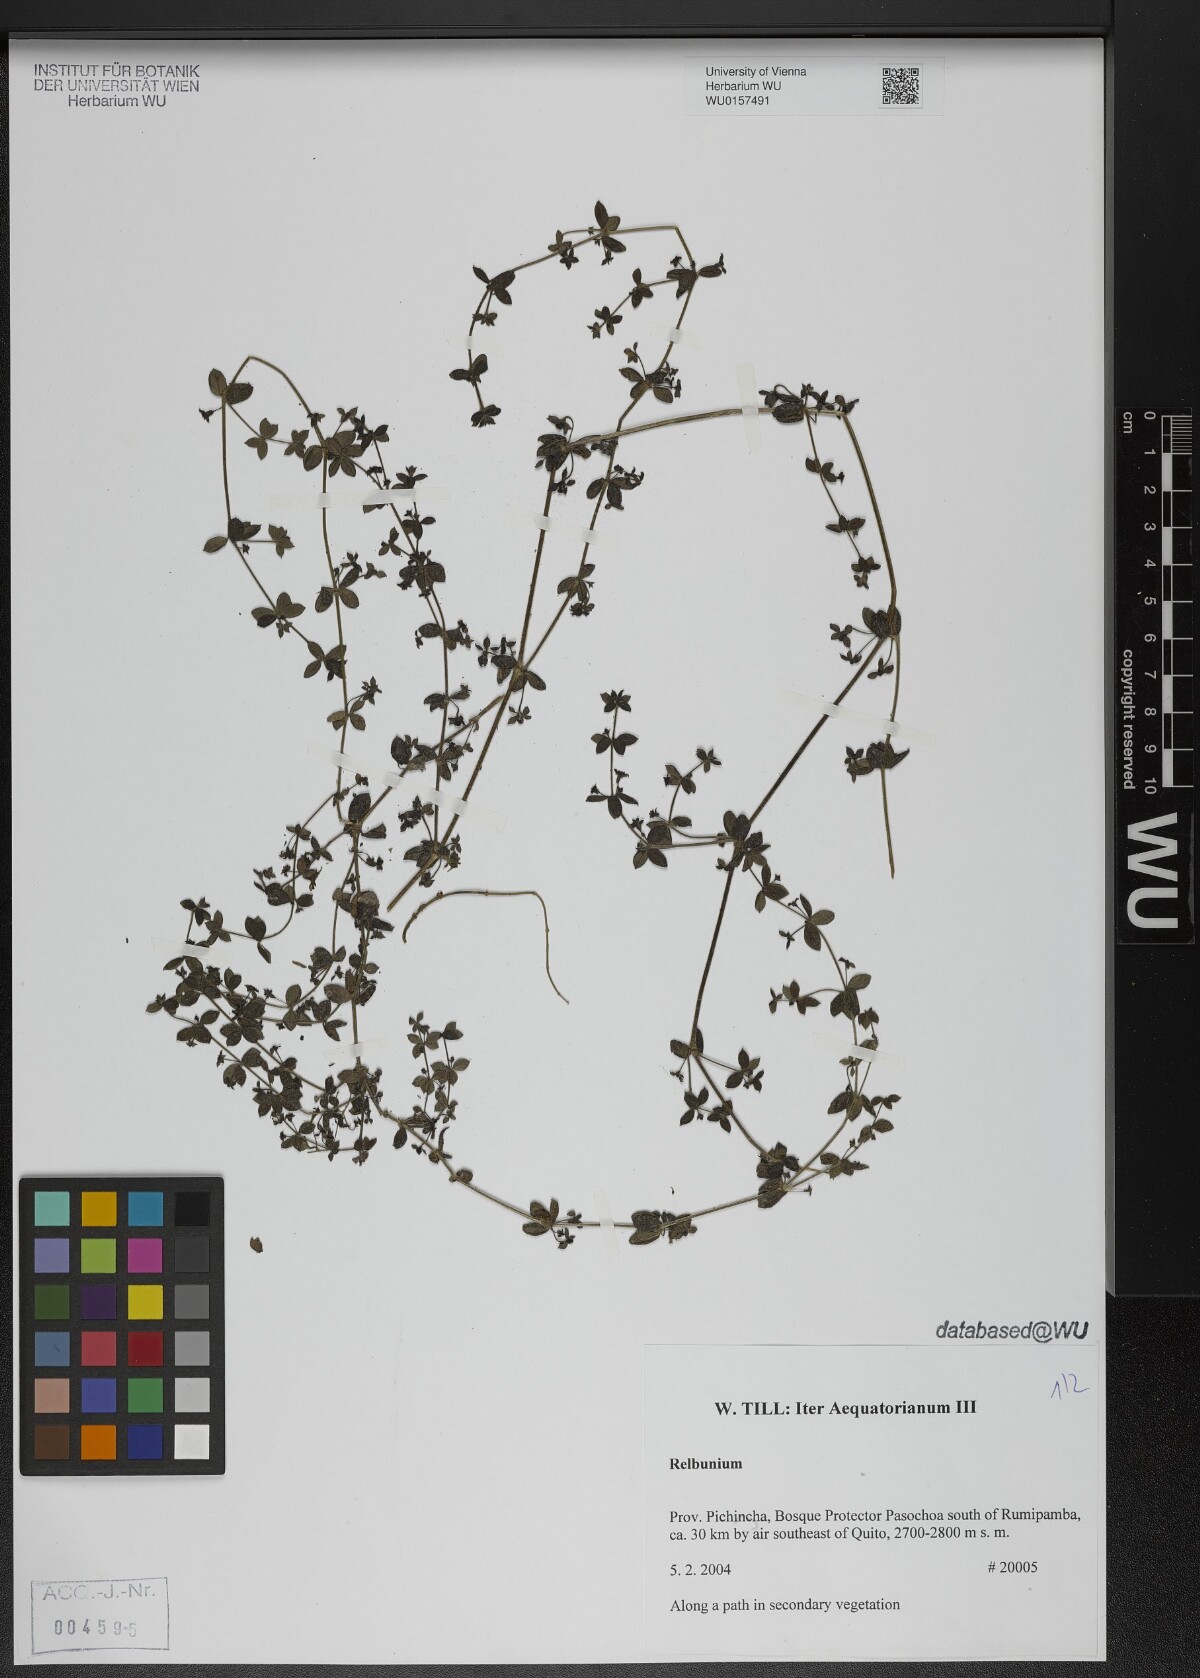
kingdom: Plantae
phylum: Tracheophyta
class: Magnoliopsida
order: Gentianales
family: Rubiaceae
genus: Galium
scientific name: Galium
